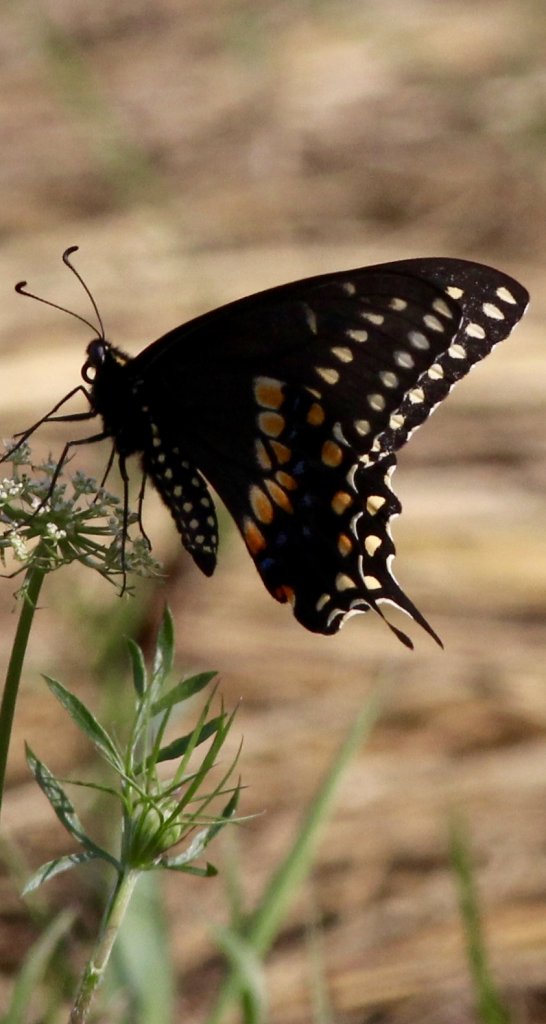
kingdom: Animalia
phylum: Arthropoda
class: Insecta
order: Lepidoptera
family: Papilionidae
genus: Papilio
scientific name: Papilio polyxenes
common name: Black Swallowtail
